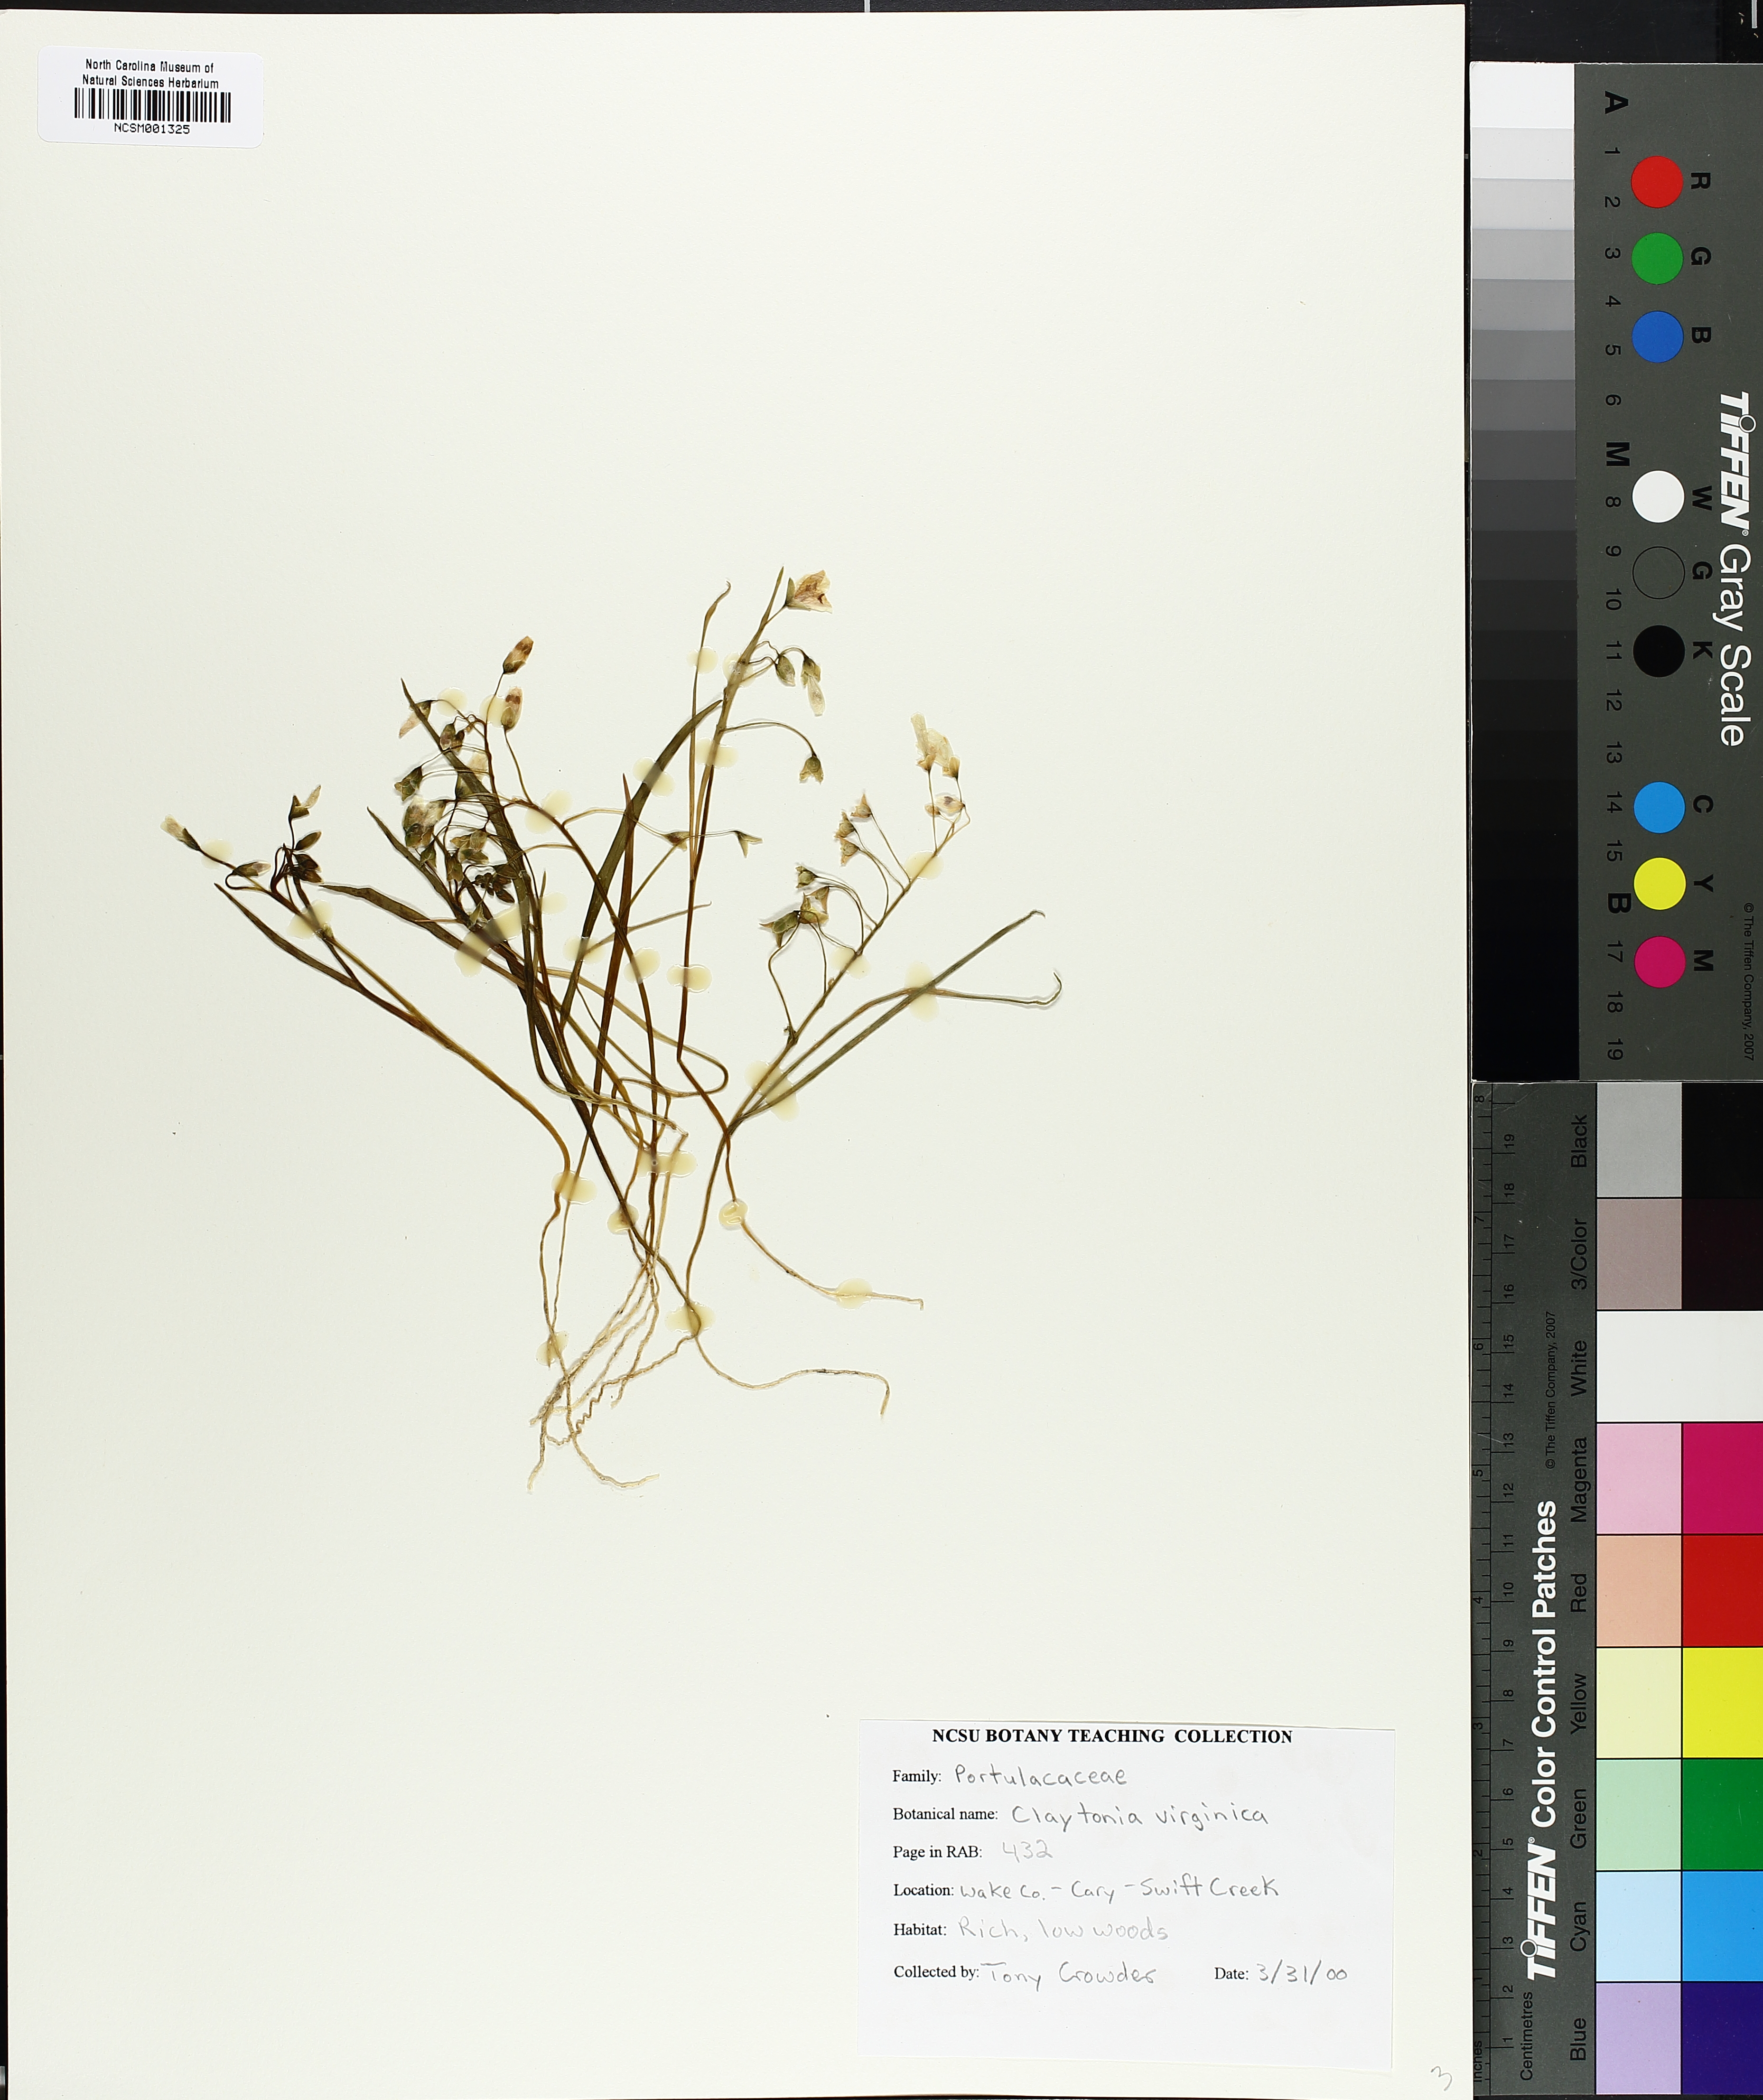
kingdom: Plantae
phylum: Tracheophyta
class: Magnoliopsida
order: Caryophyllales
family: Montiaceae
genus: Claytonia
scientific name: Claytonia virginica
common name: Virginia springbeauty
